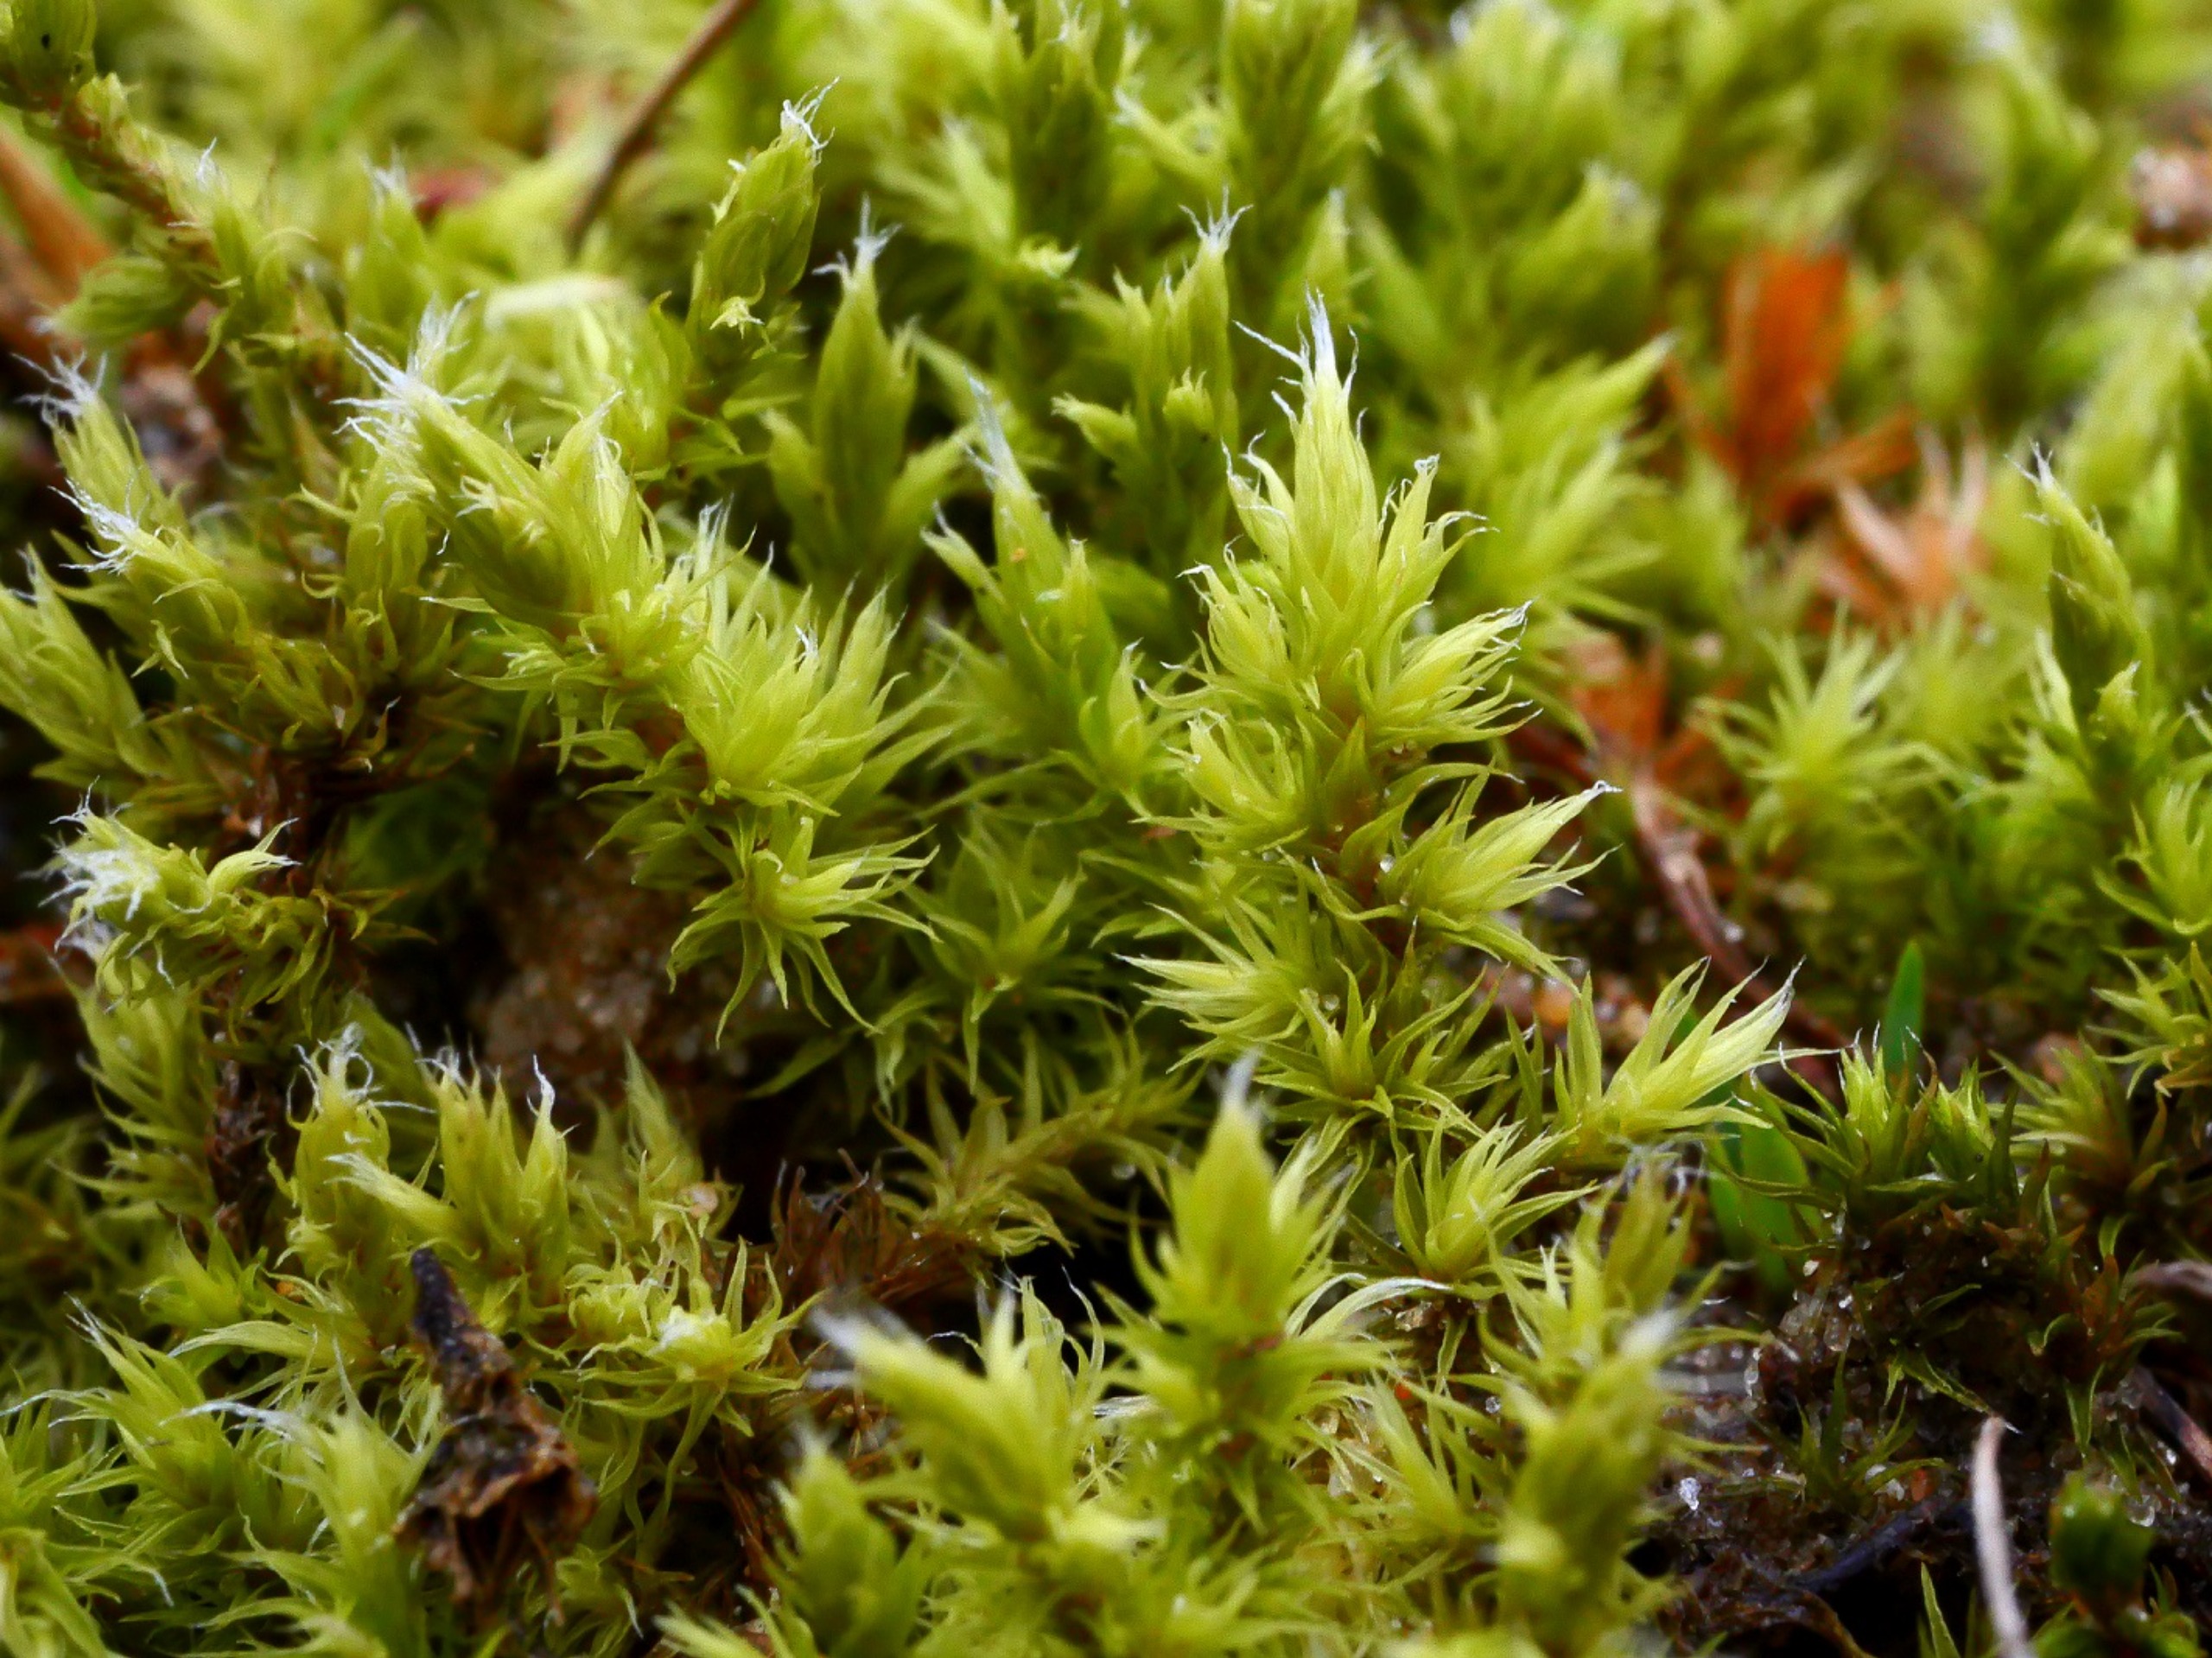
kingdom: Plantae
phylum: Bryophyta
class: Bryopsida
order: Grimmiales
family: Grimmiaceae
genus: Niphotrichum
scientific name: Niphotrichum ericoides
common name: Tætgrenet børstemos
